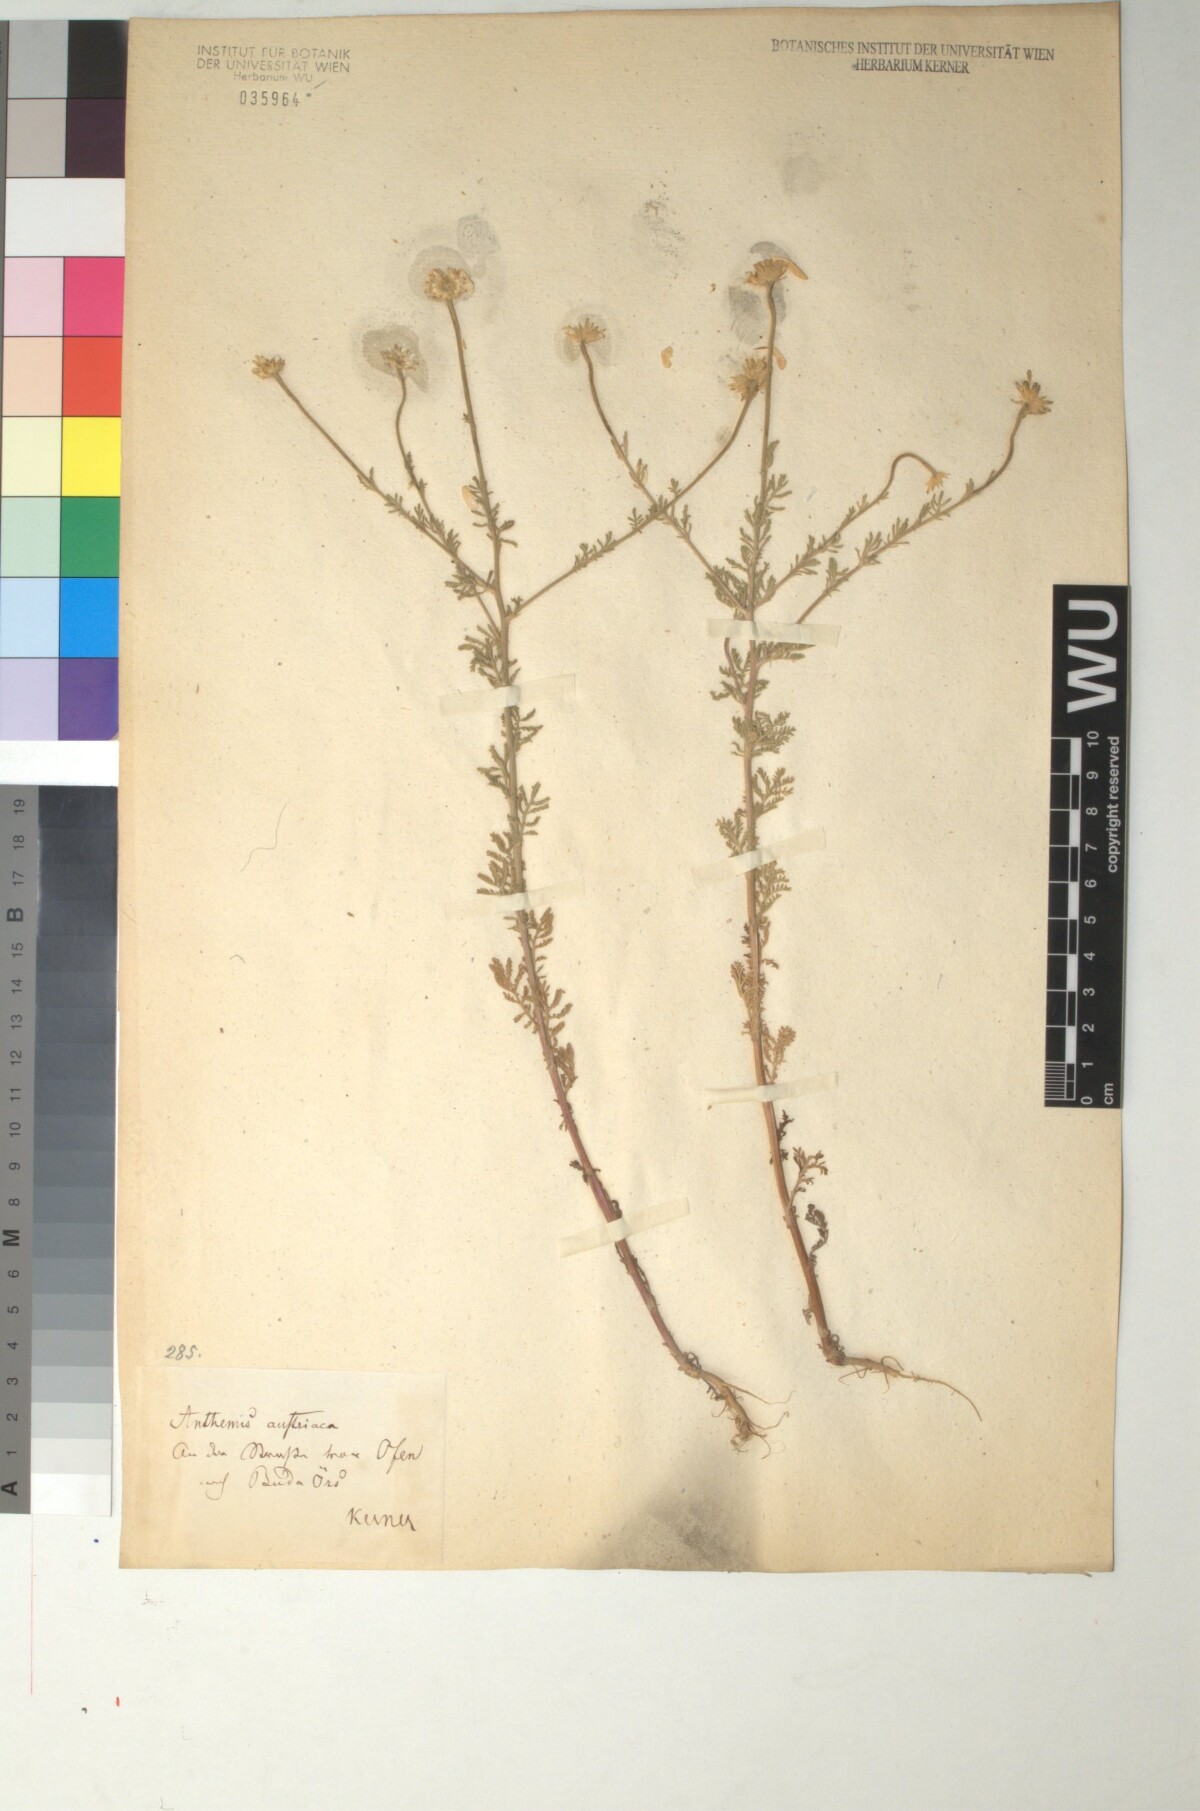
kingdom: Plantae
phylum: Tracheophyta
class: Magnoliopsida
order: Asterales
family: Asteraceae
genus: Cota
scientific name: Cota austriaca
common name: Austrian chamomile
